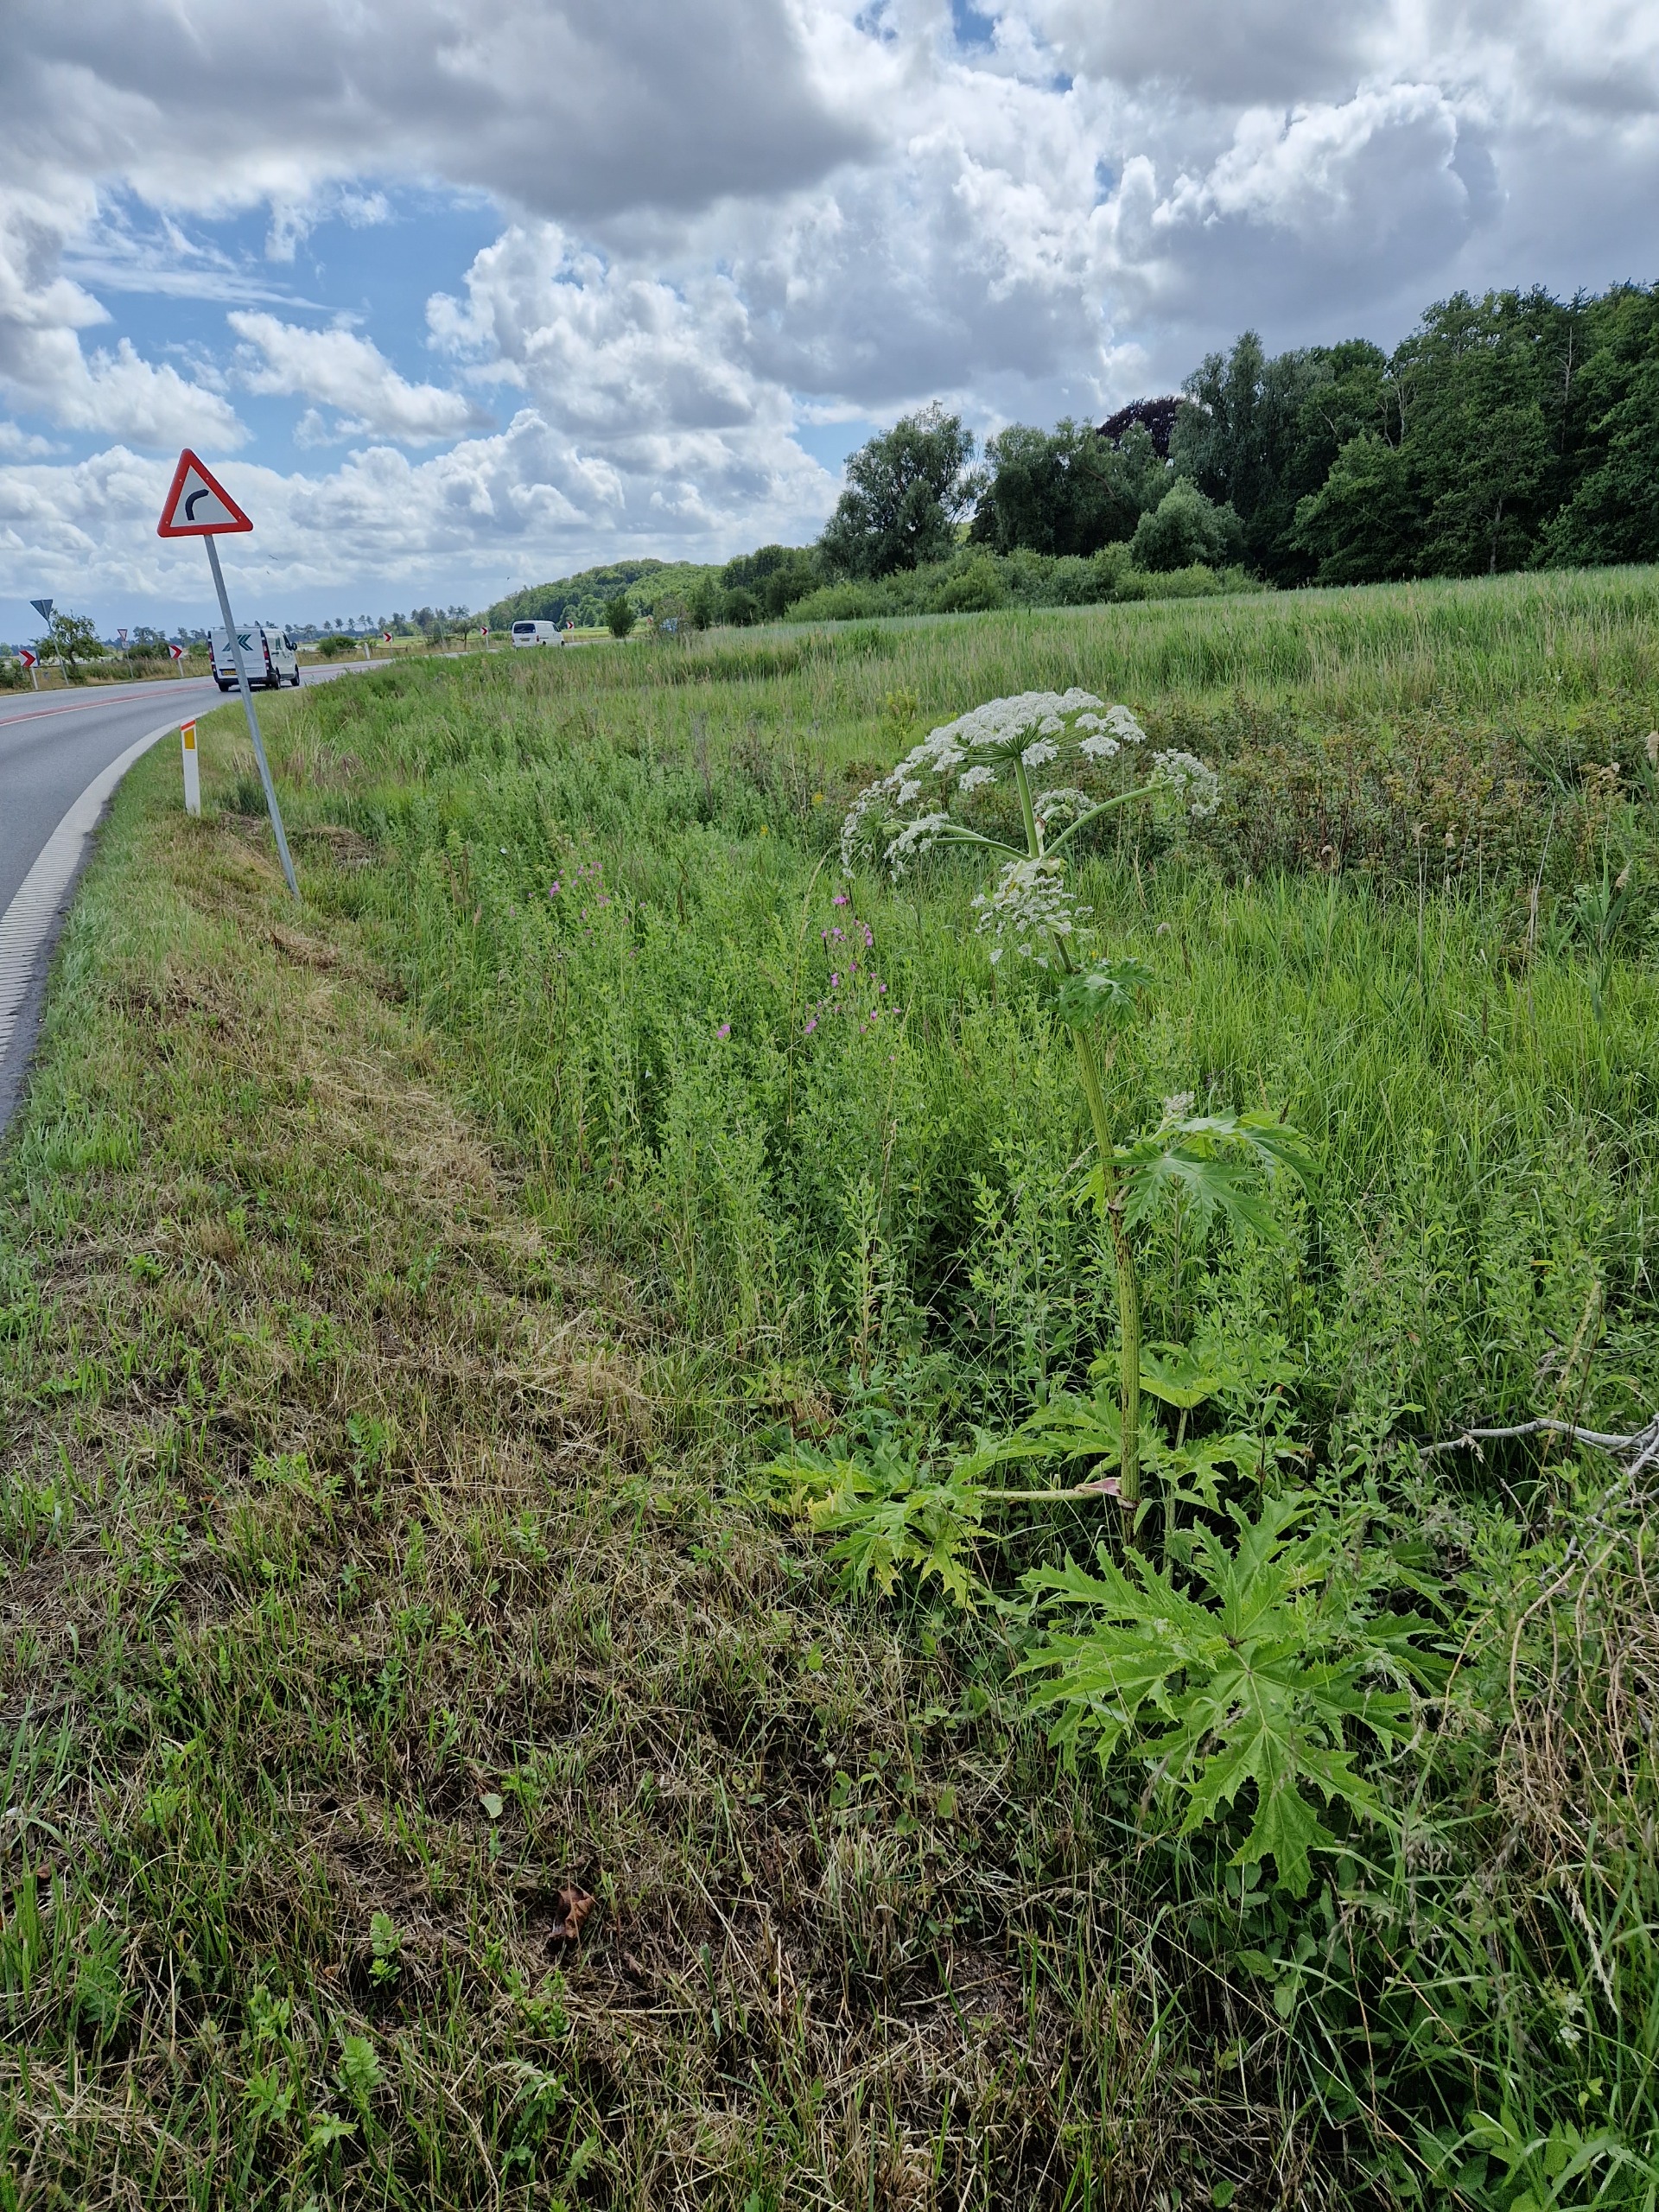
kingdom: Plantae
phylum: Tracheophyta
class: Magnoliopsida
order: Apiales
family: Apiaceae
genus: Heracleum
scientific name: Heracleum mantegazzianum
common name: Kæmpe-bjørneklo
